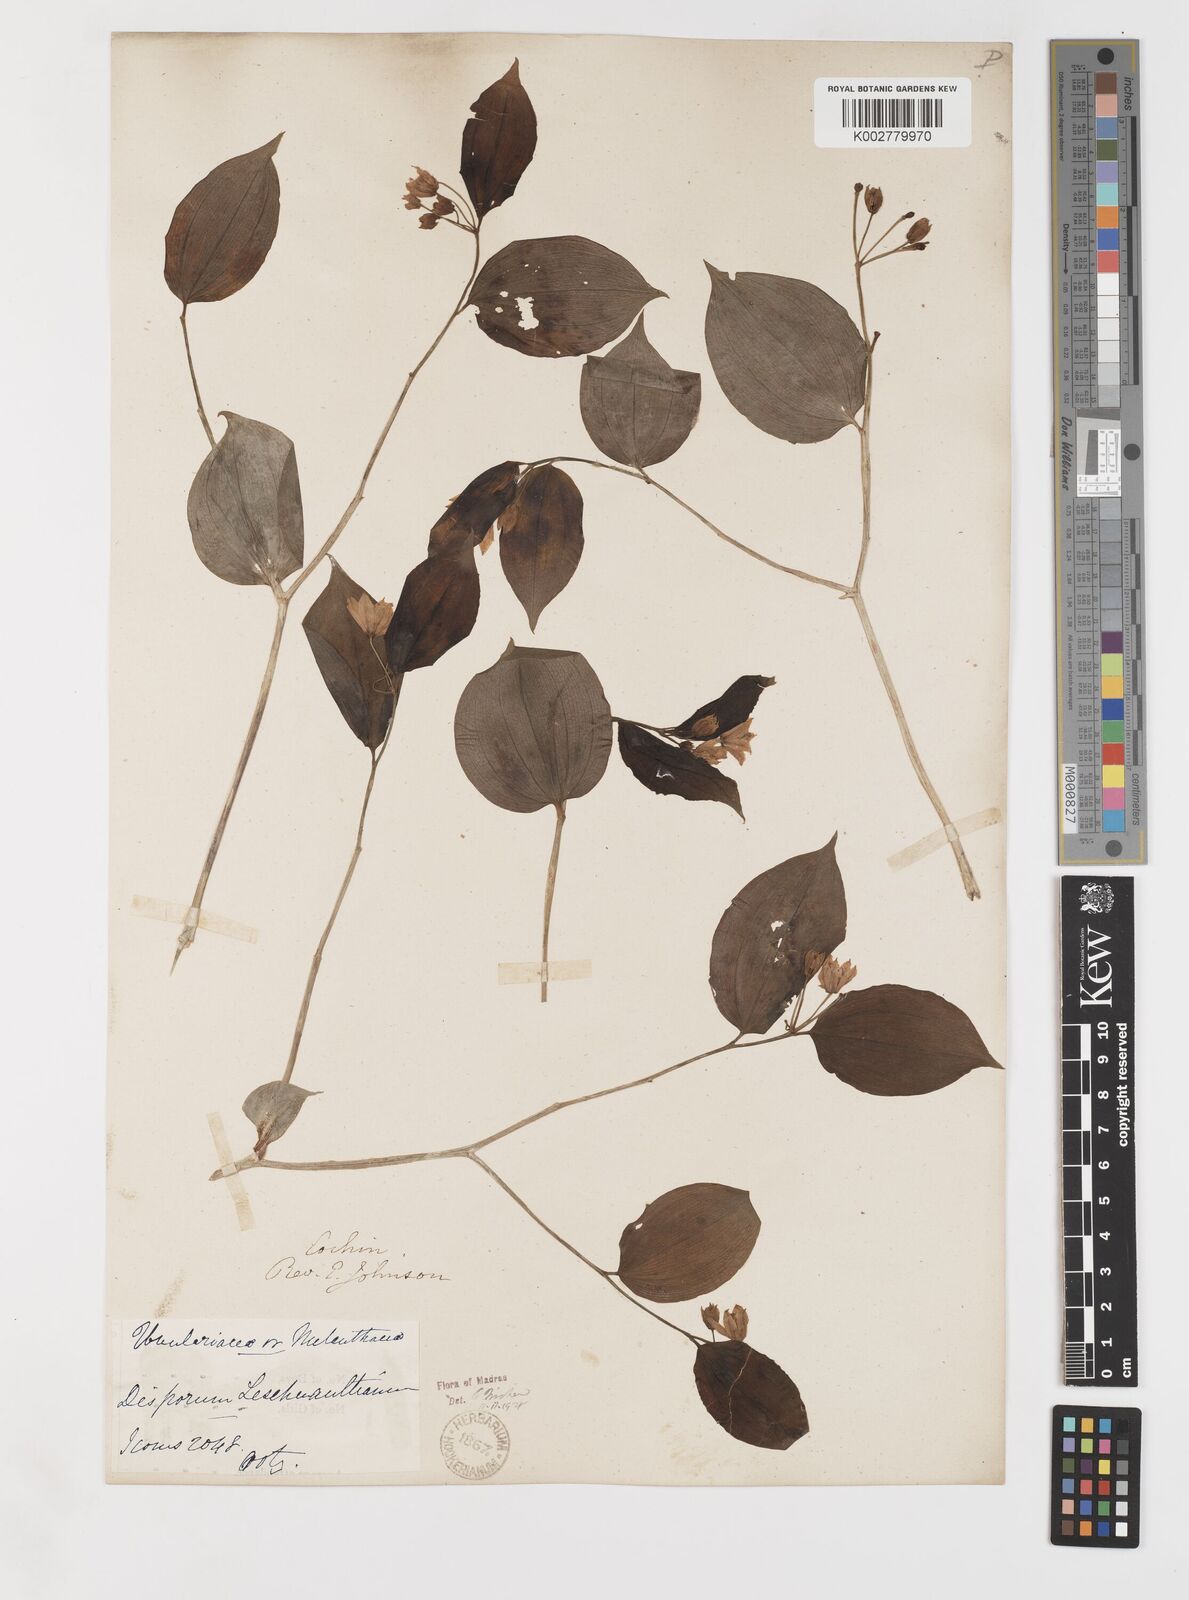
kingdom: Plantae
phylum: Tracheophyta
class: Liliopsida
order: Liliales
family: Colchicaceae
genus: Disporum
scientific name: Disporum cantoniense
